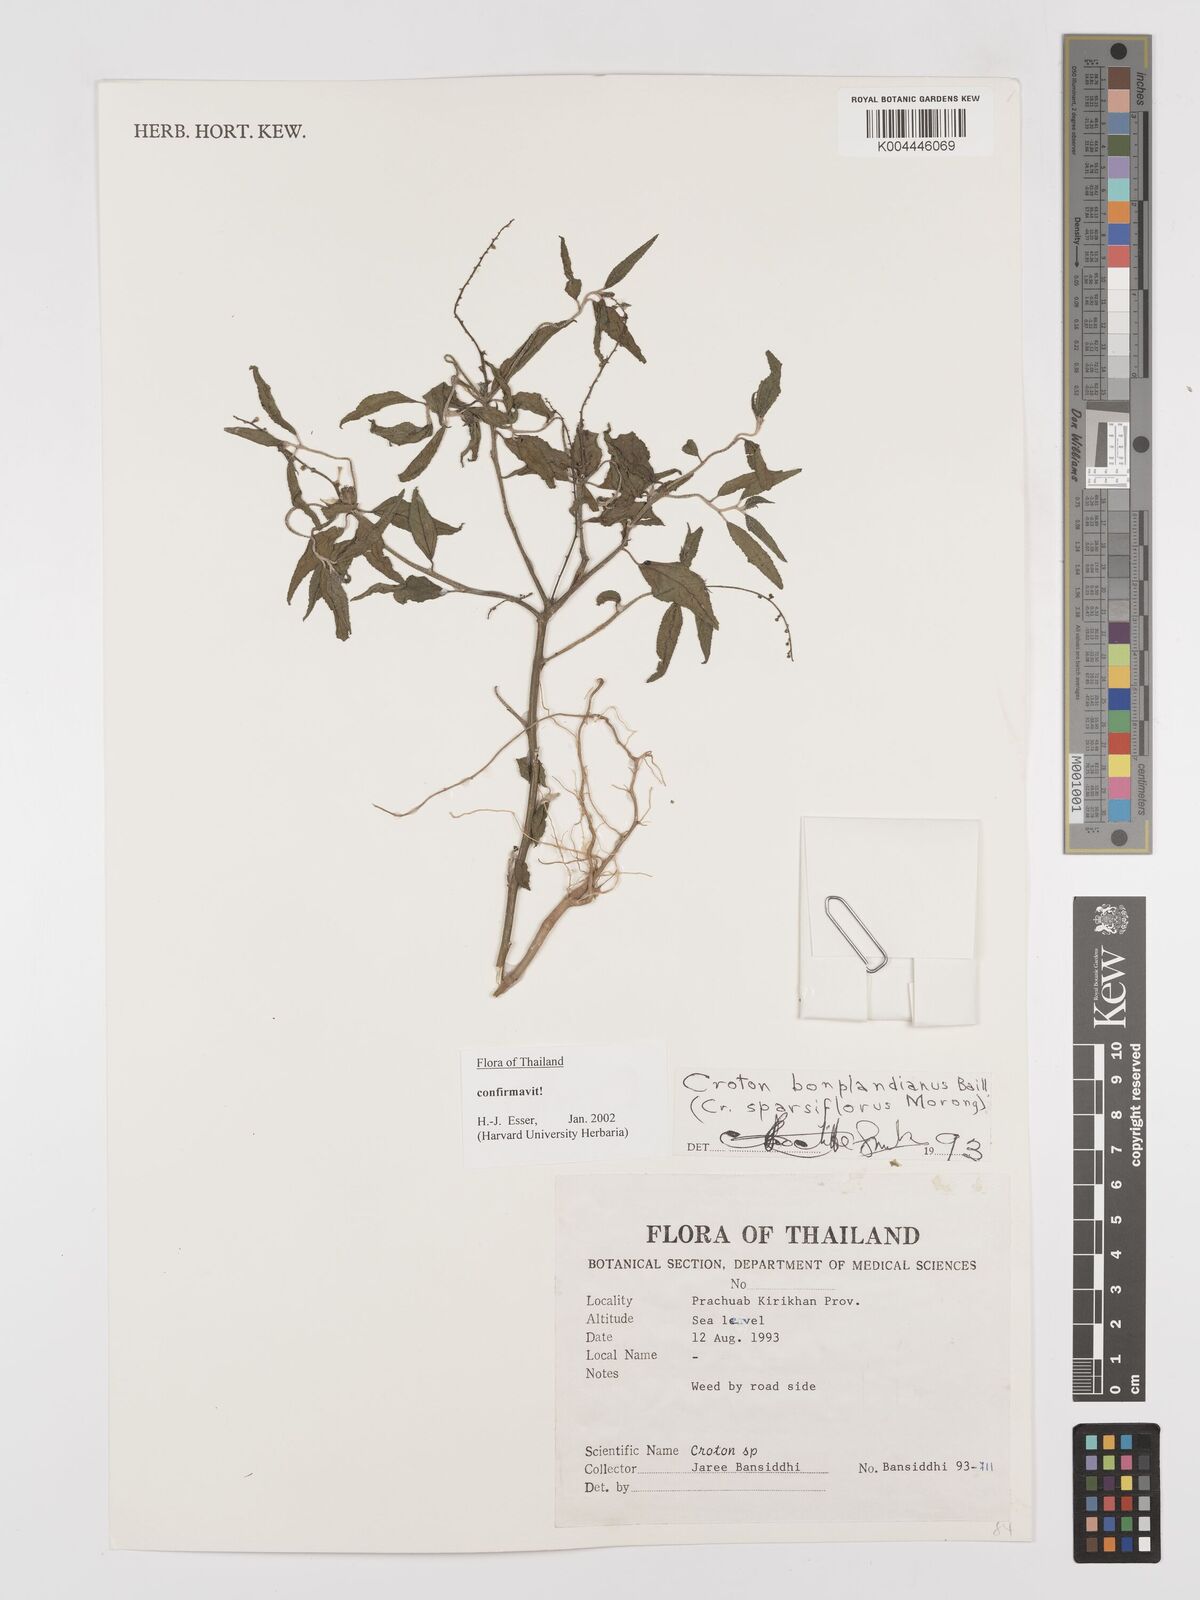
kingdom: Plantae
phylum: Tracheophyta
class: Magnoliopsida
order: Malpighiales
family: Euphorbiaceae
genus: Croton
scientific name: Croton bonplandianus
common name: Bonpland's croton
